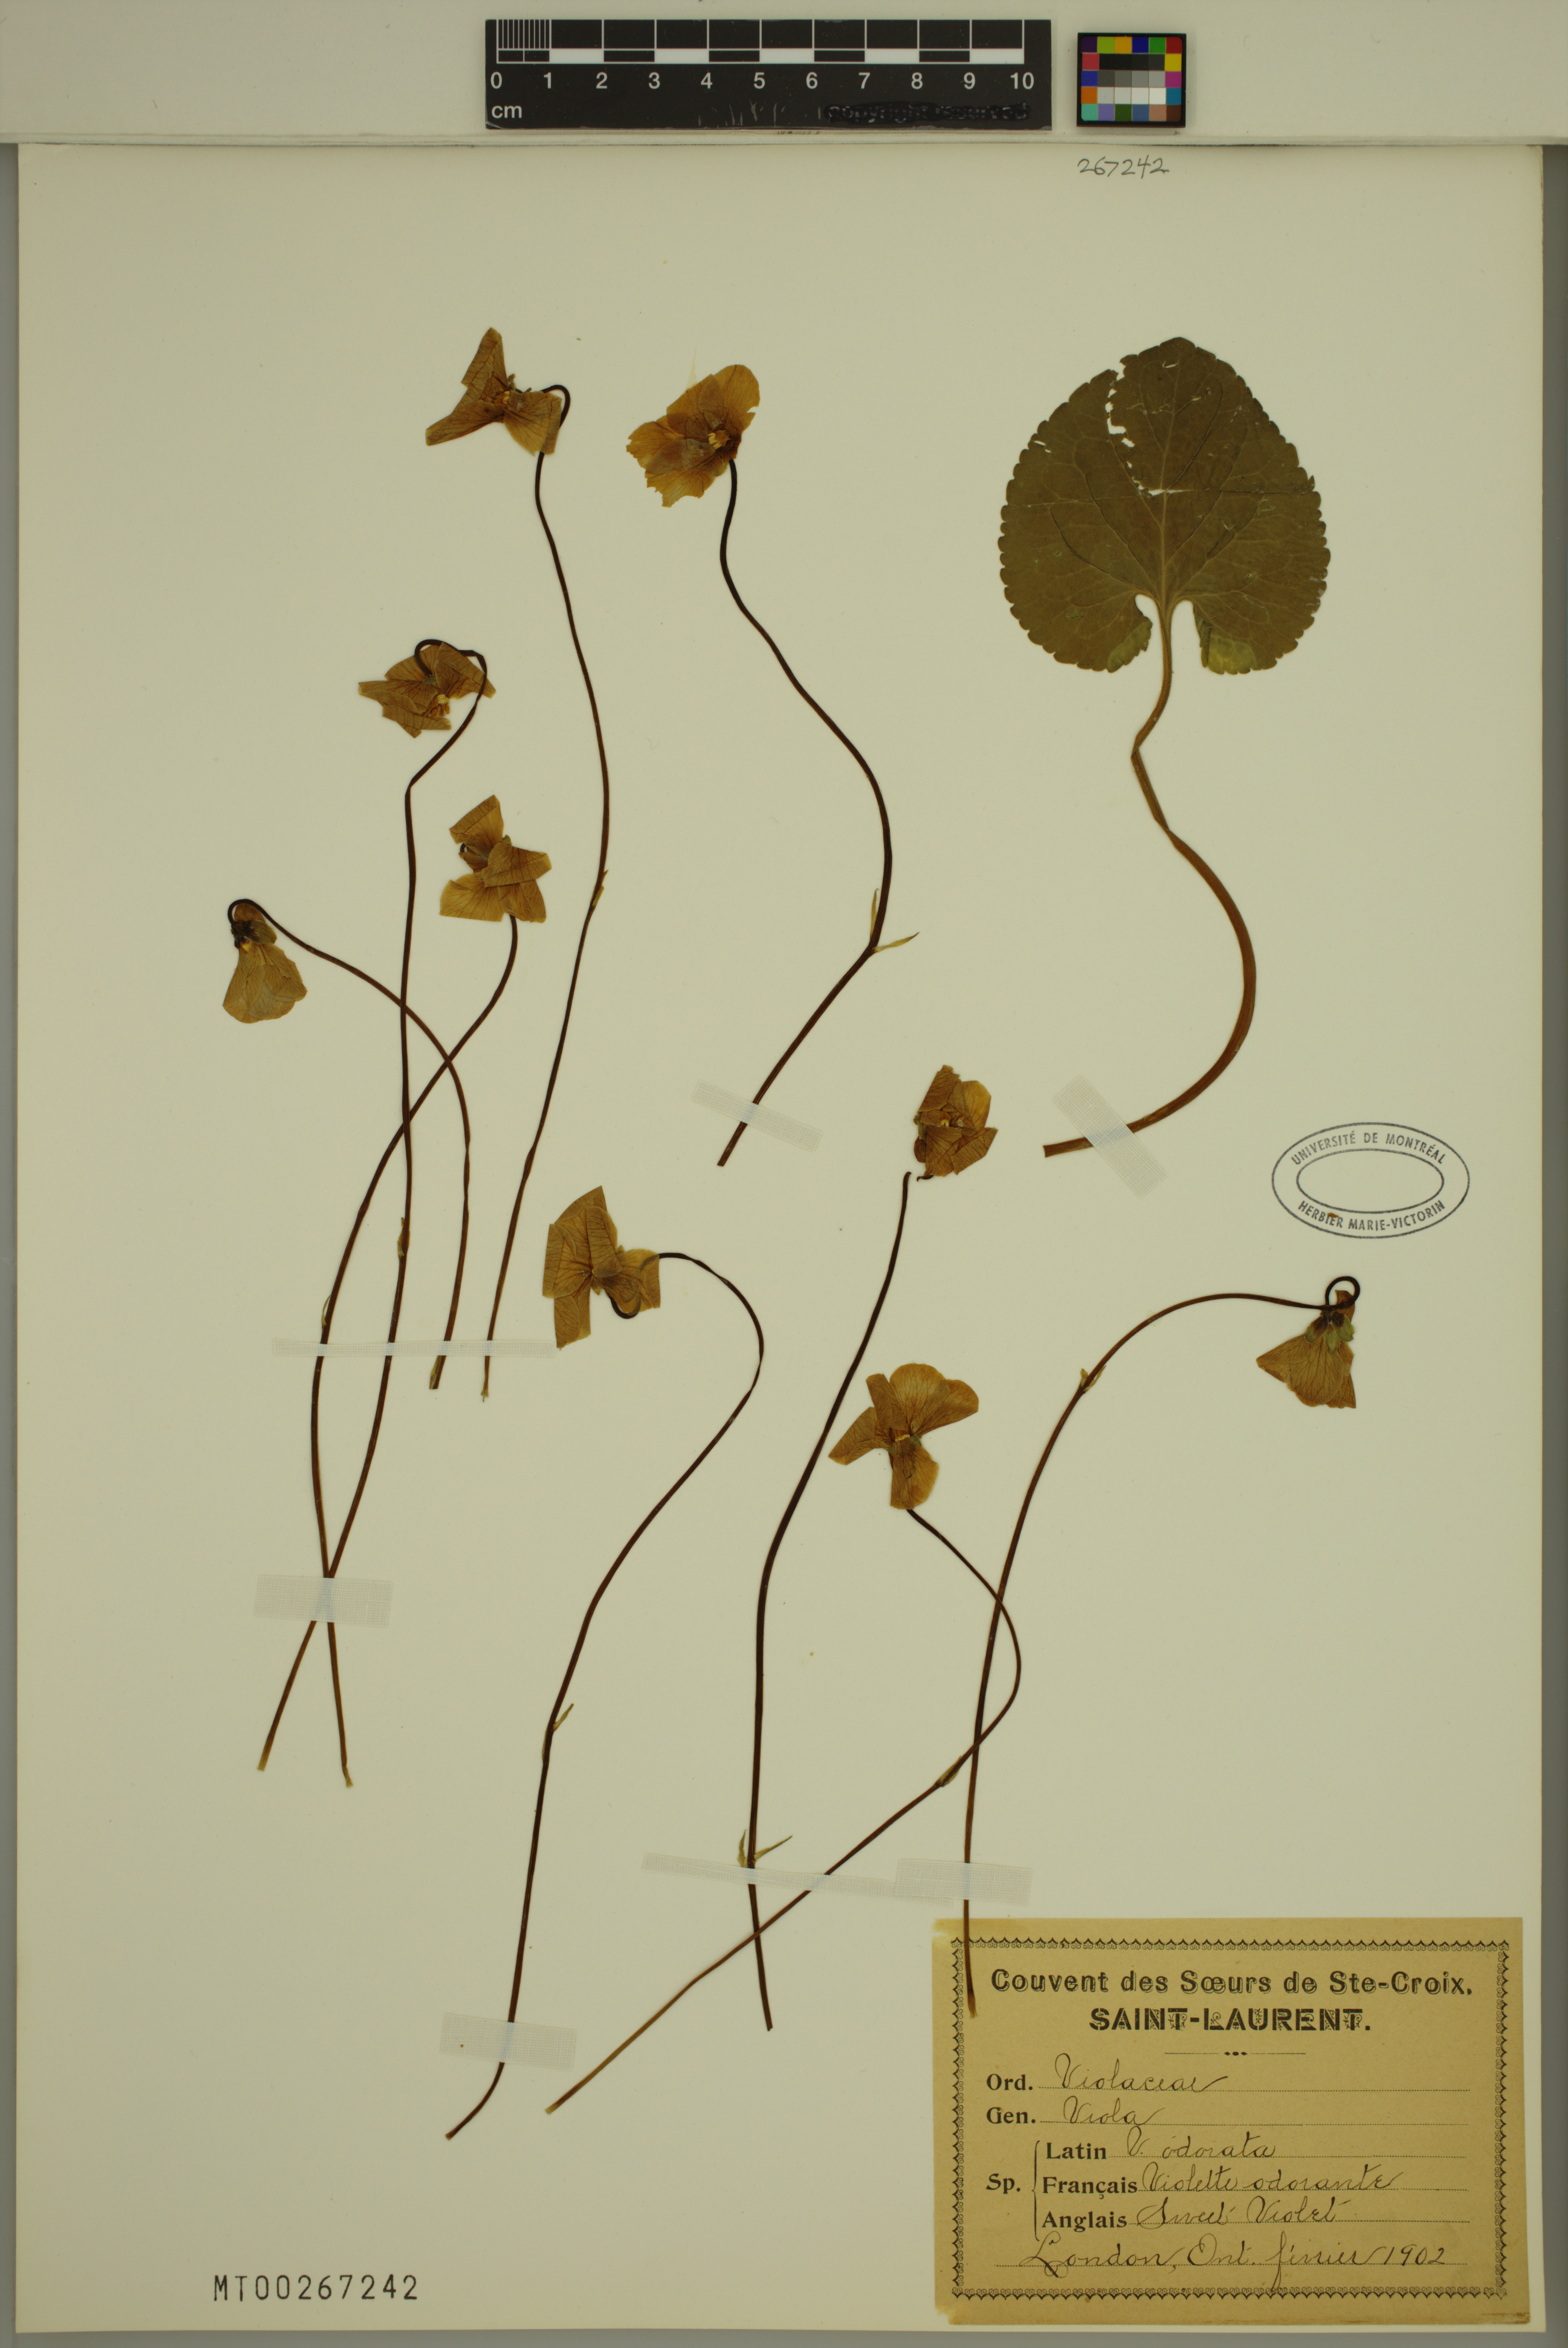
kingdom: Plantae
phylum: Tracheophyta
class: Magnoliopsida
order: Malpighiales
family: Violaceae
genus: Viola
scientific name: Viola odorata
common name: Sweet violet
